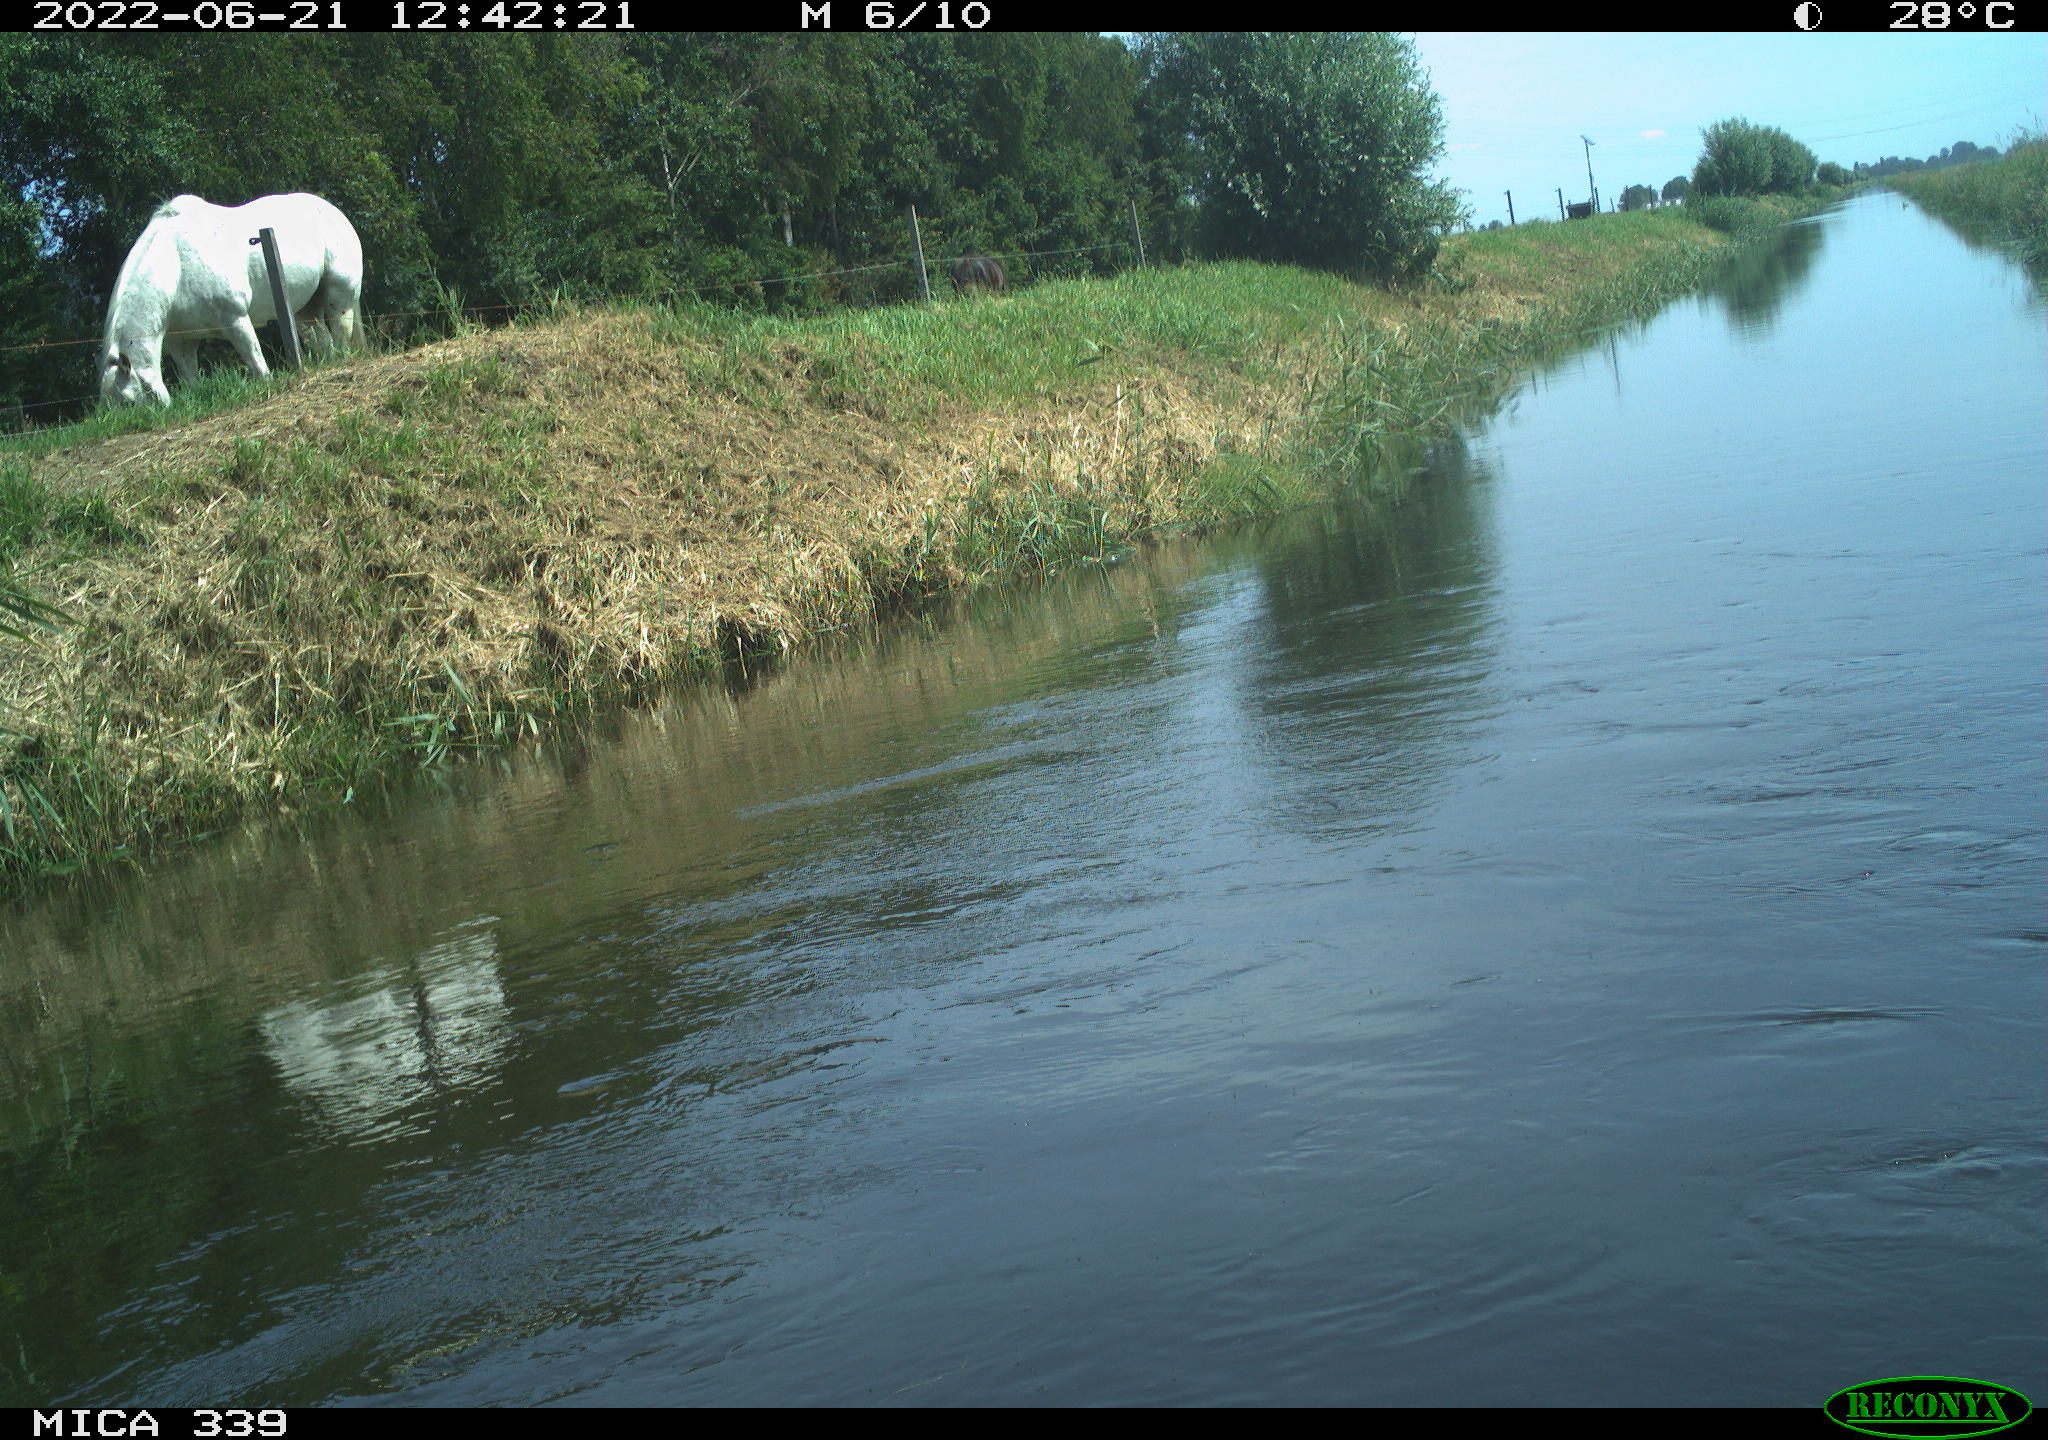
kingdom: Animalia
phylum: Chordata
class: Mammalia
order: Perissodactyla
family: Equidae
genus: Equus
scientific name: Equus caballus
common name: Horse
